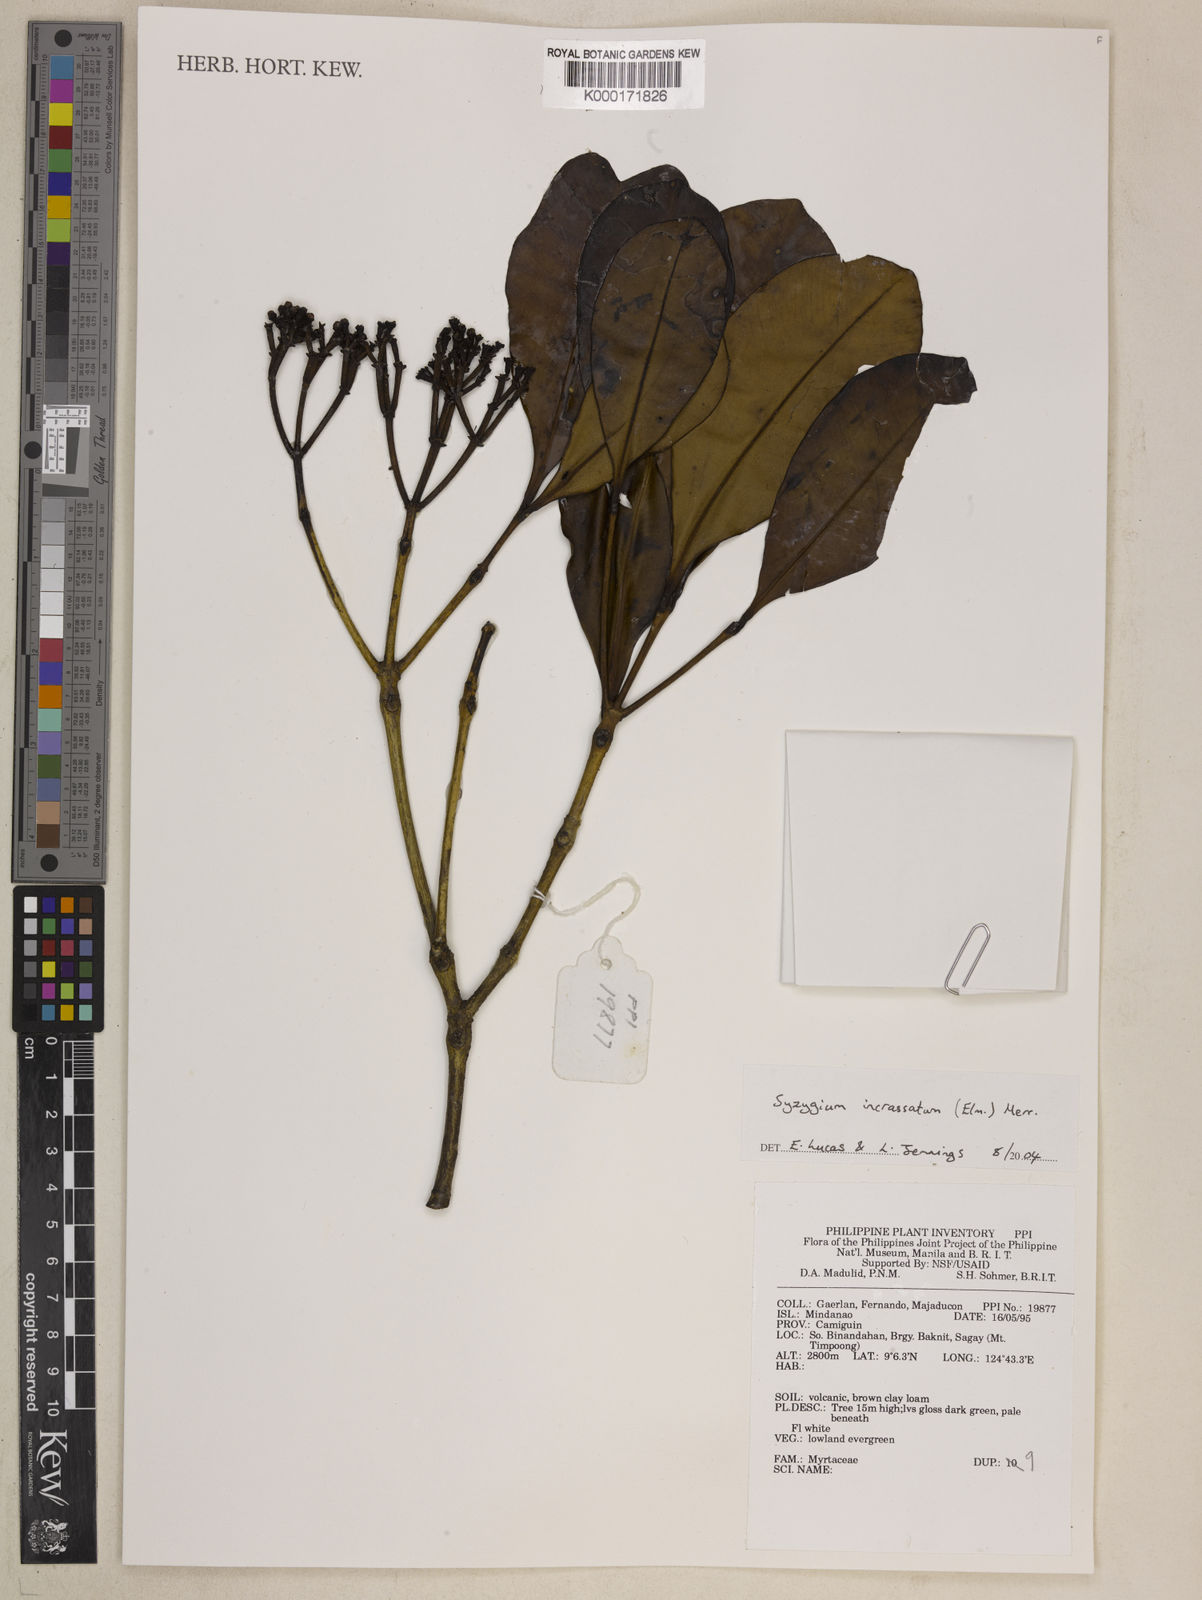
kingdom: Plantae
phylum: Tracheophyta
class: Magnoliopsida
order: Myrtales
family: Myrtaceae
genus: Syzygium
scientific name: Syzygium incrassatum
